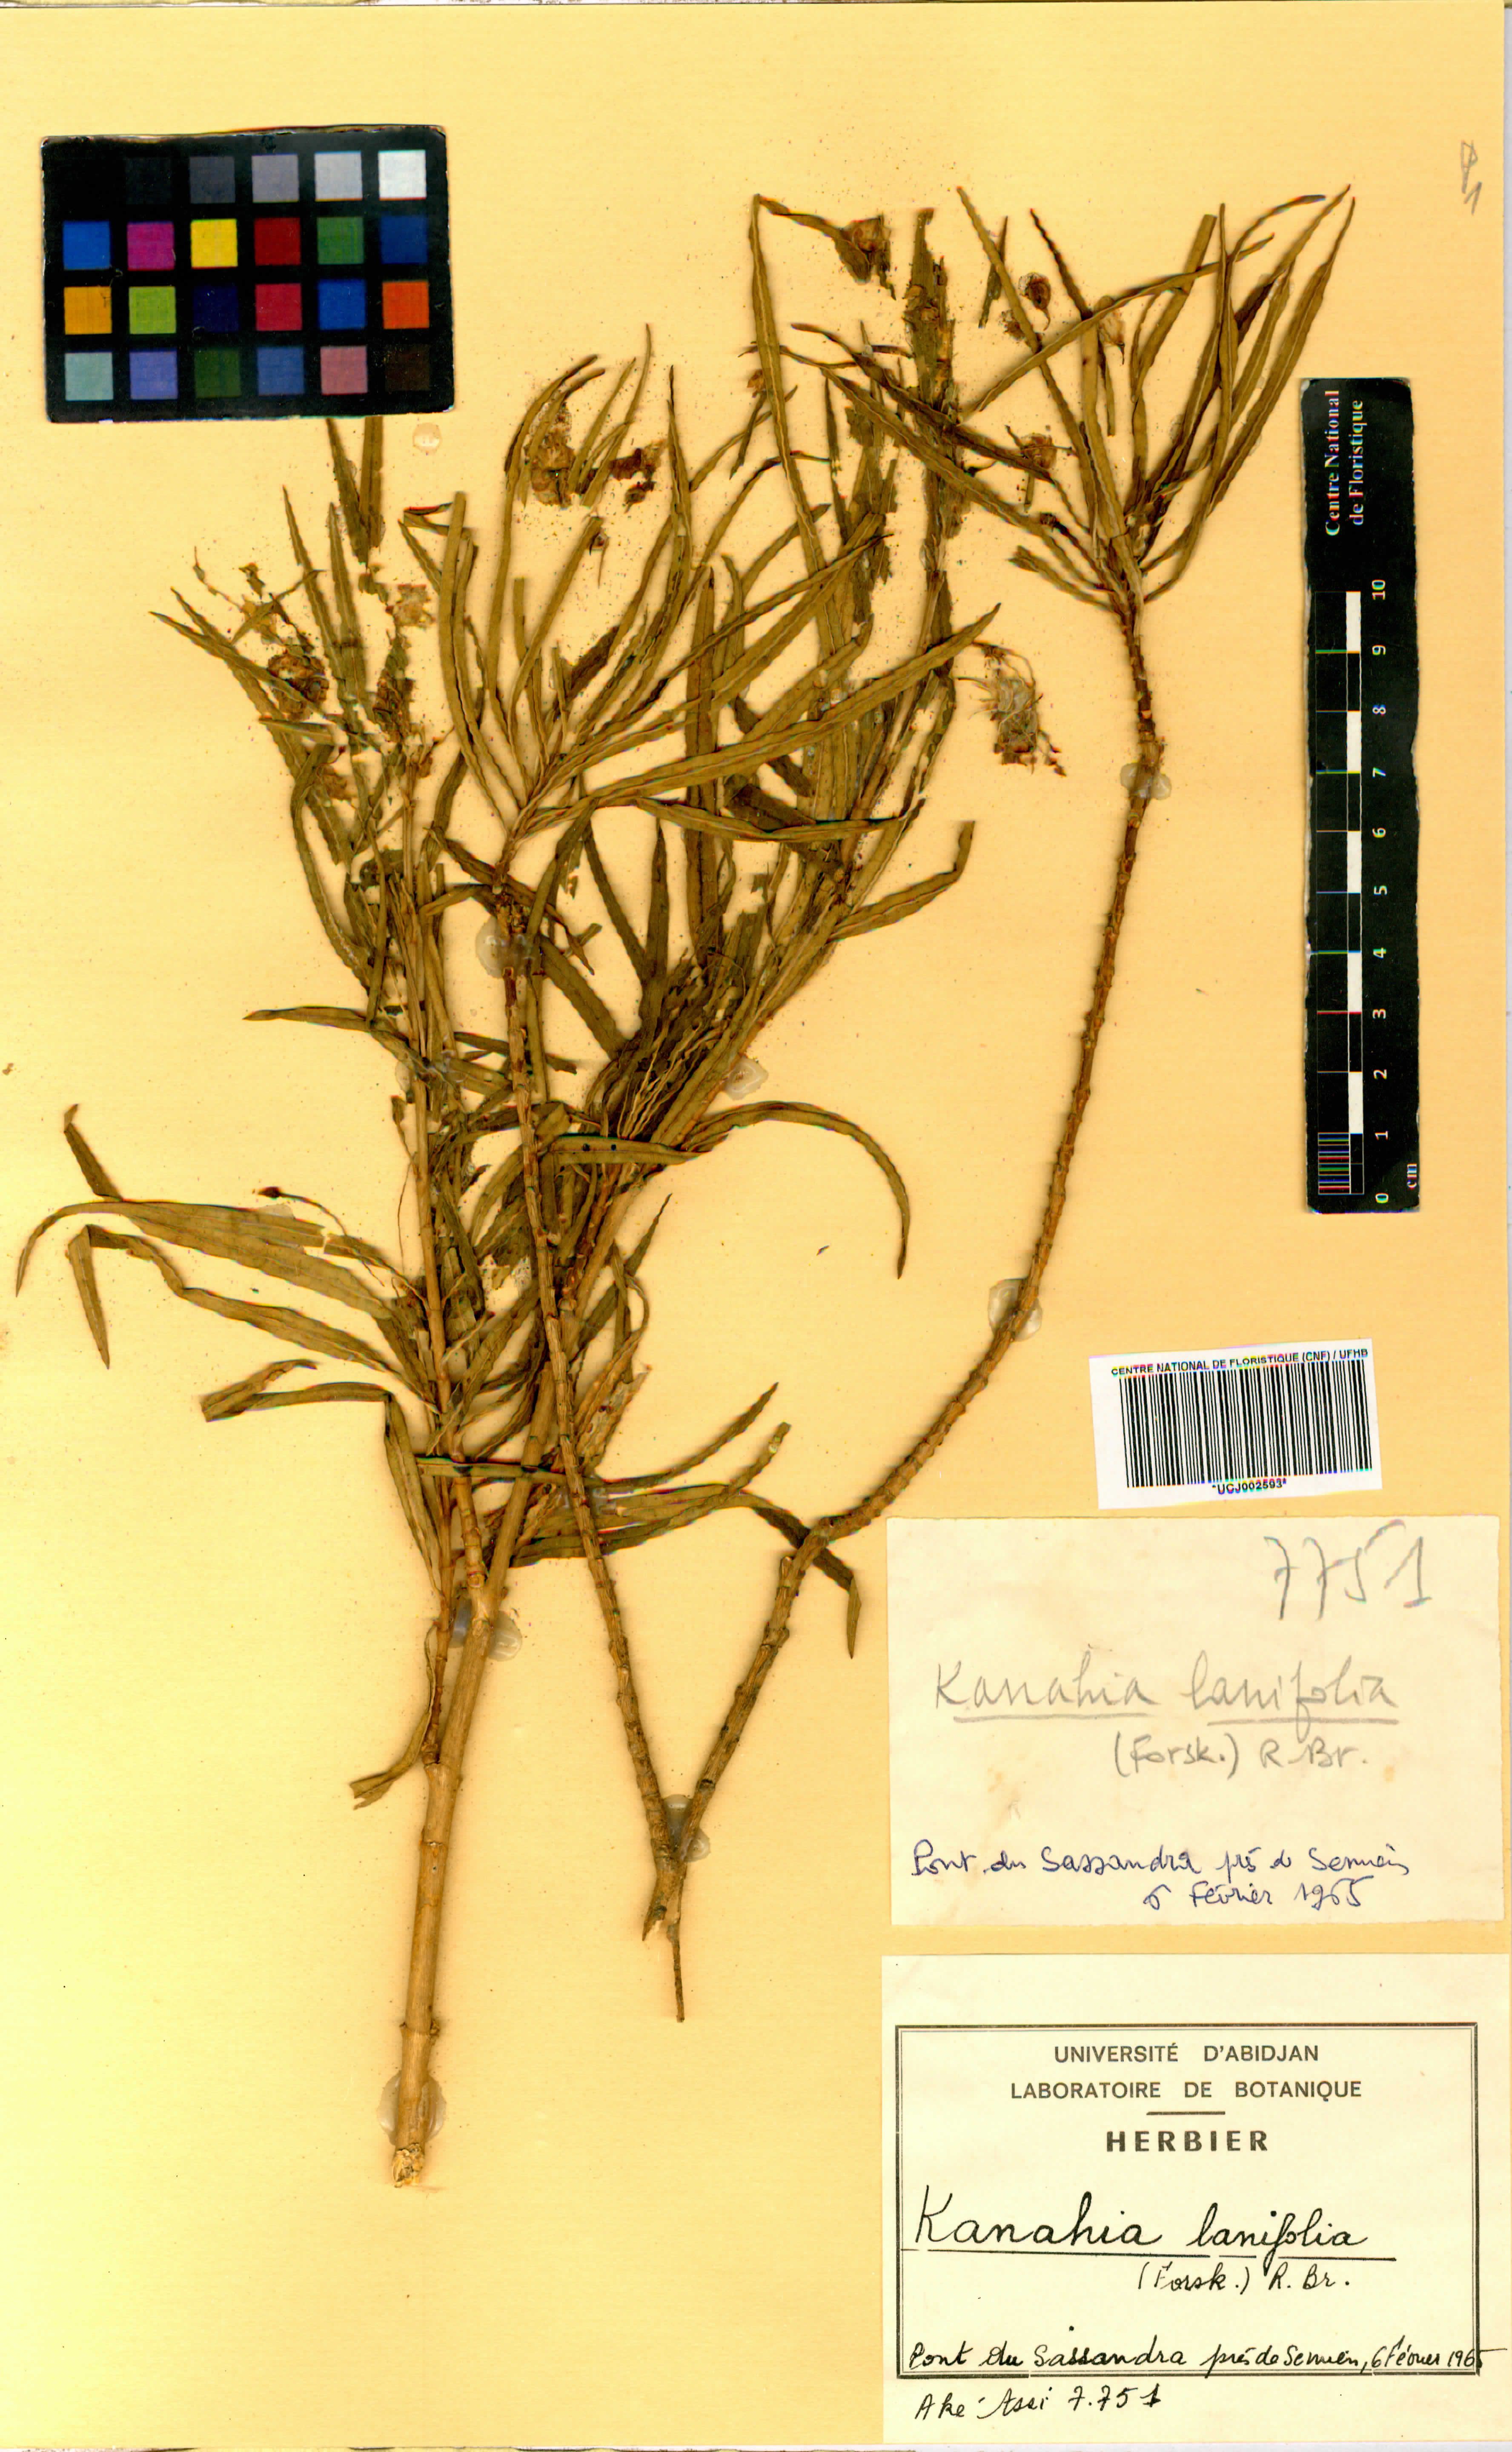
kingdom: Plantae
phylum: Tracheophyta
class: Magnoliopsida
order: Gentianales
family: Apocynaceae
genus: Kanahia
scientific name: Kanahia laniflora
